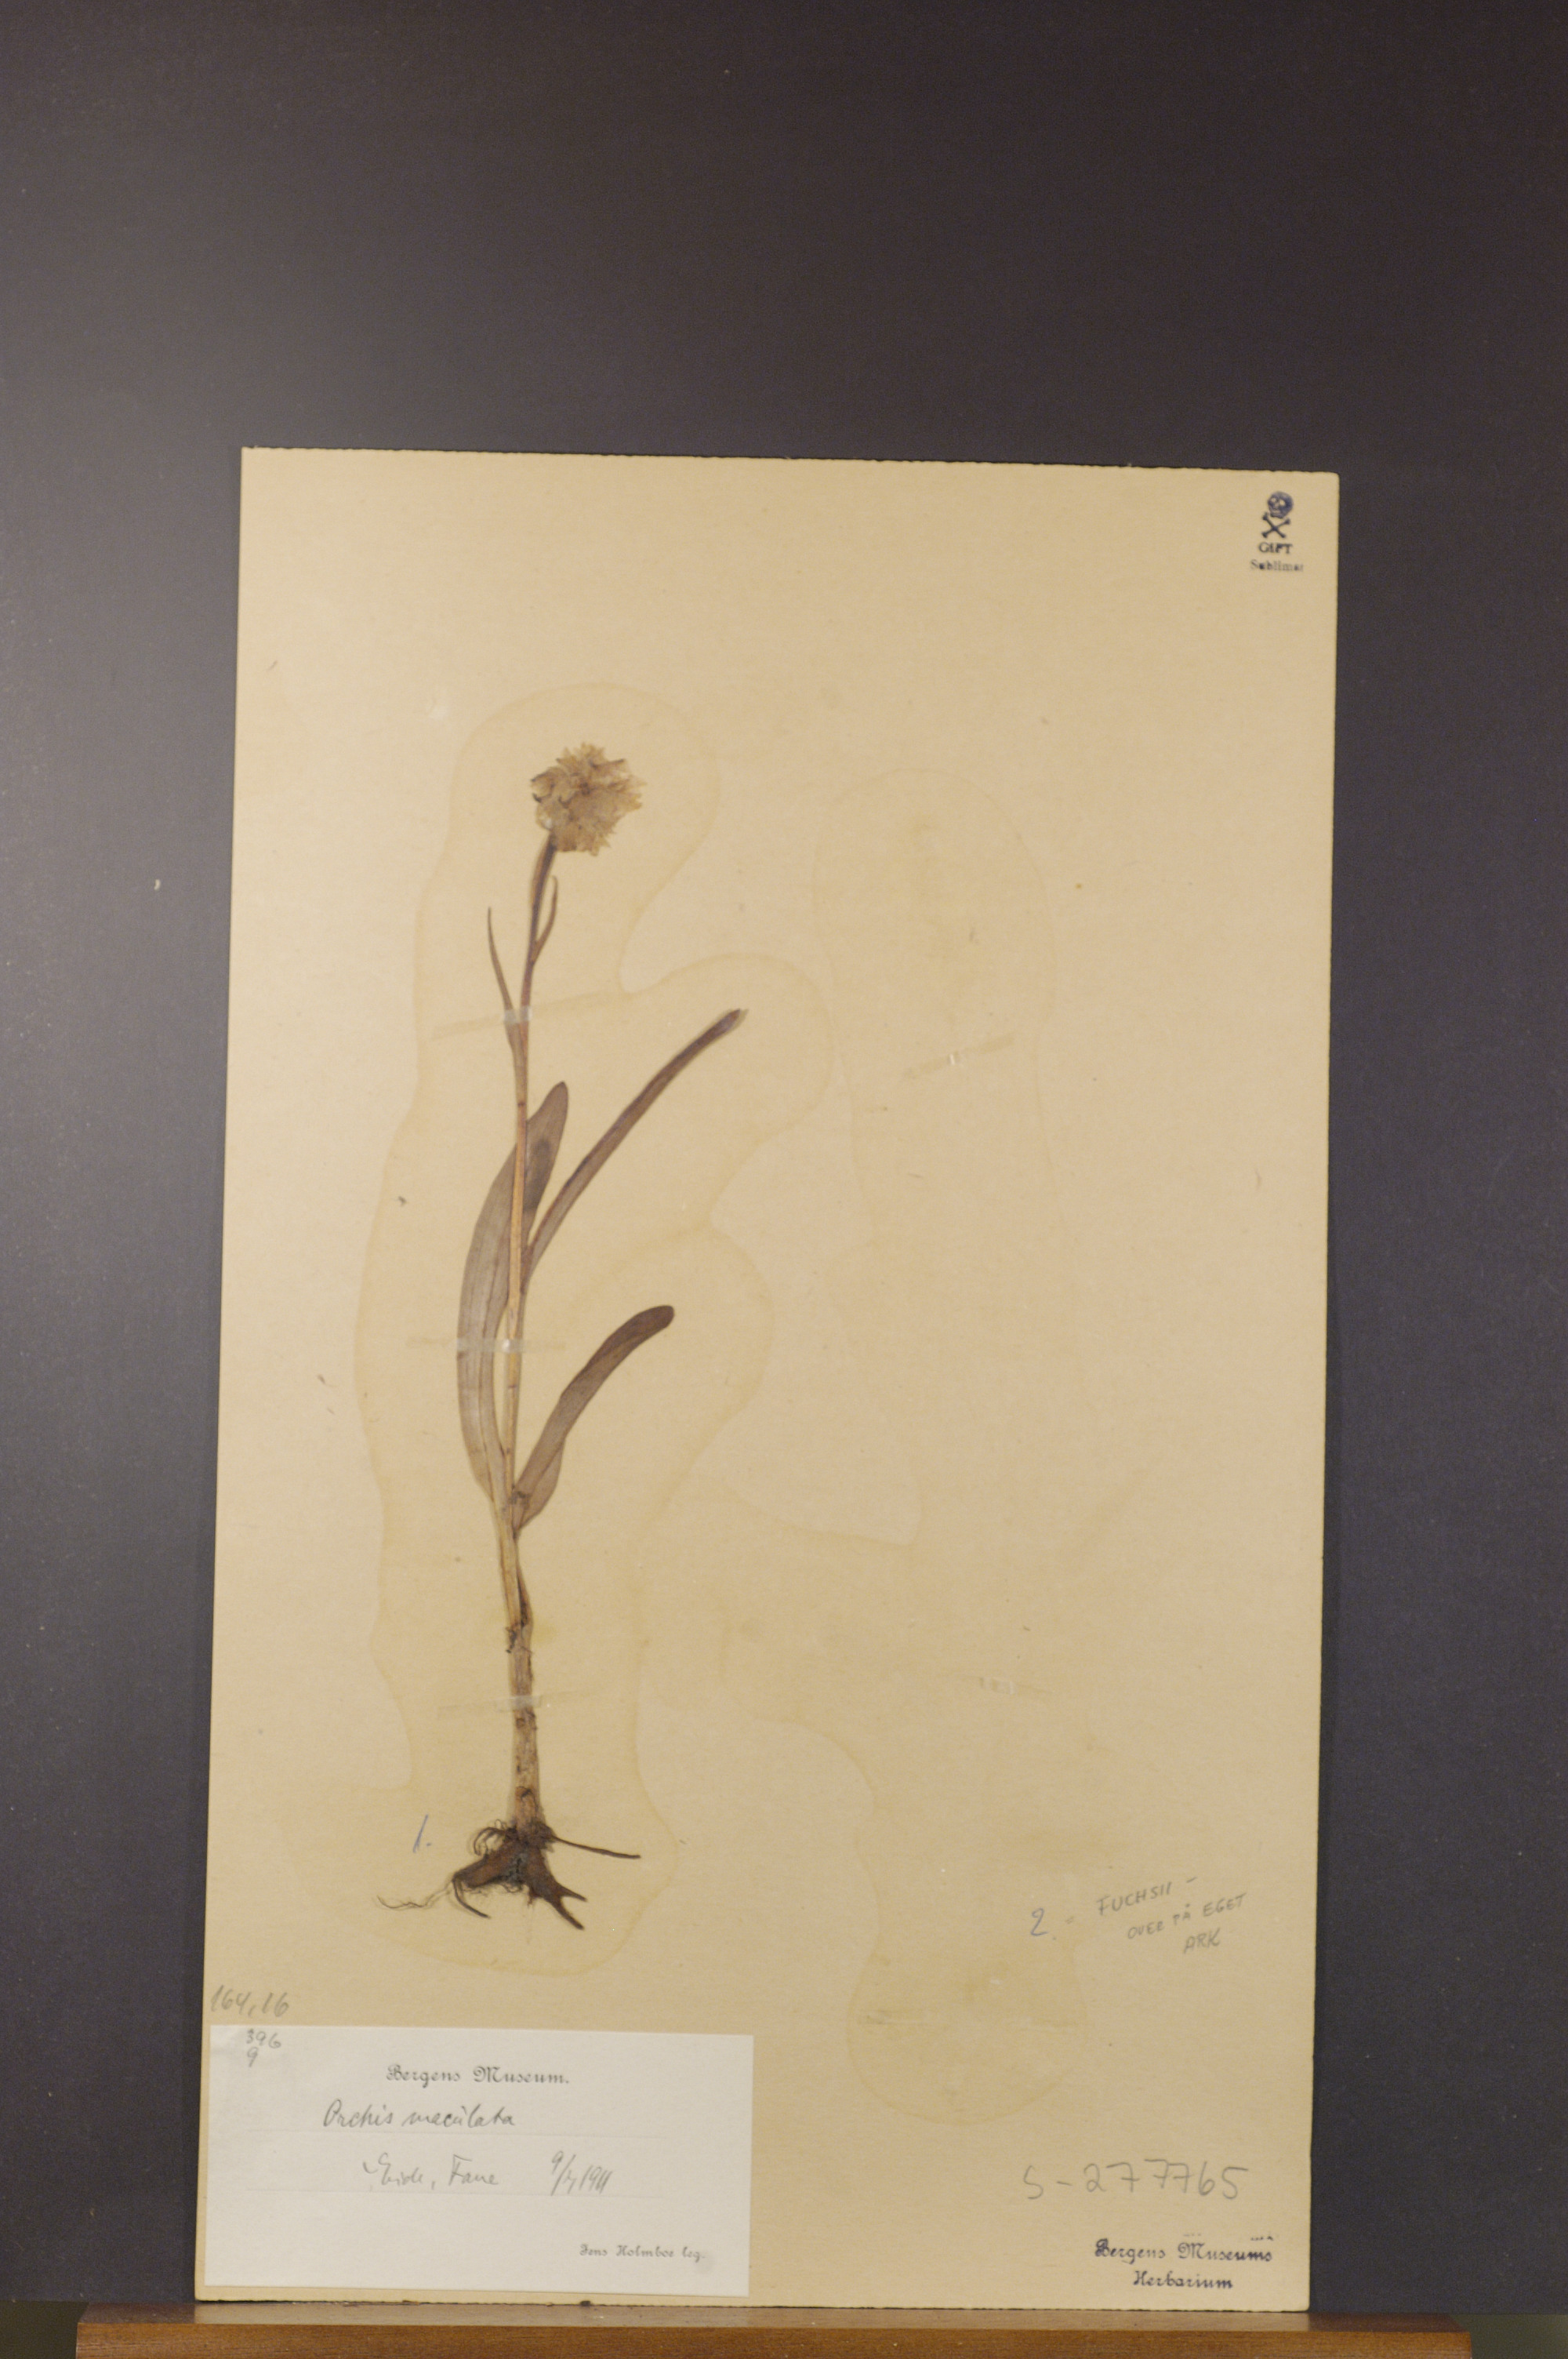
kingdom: Plantae
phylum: Tracheophyta
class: Liliopsida
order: Asparagales
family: Orchidaceae
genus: Dactylorhiza
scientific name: Dactylorhiza maculata
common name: Heath spotted-orchid
